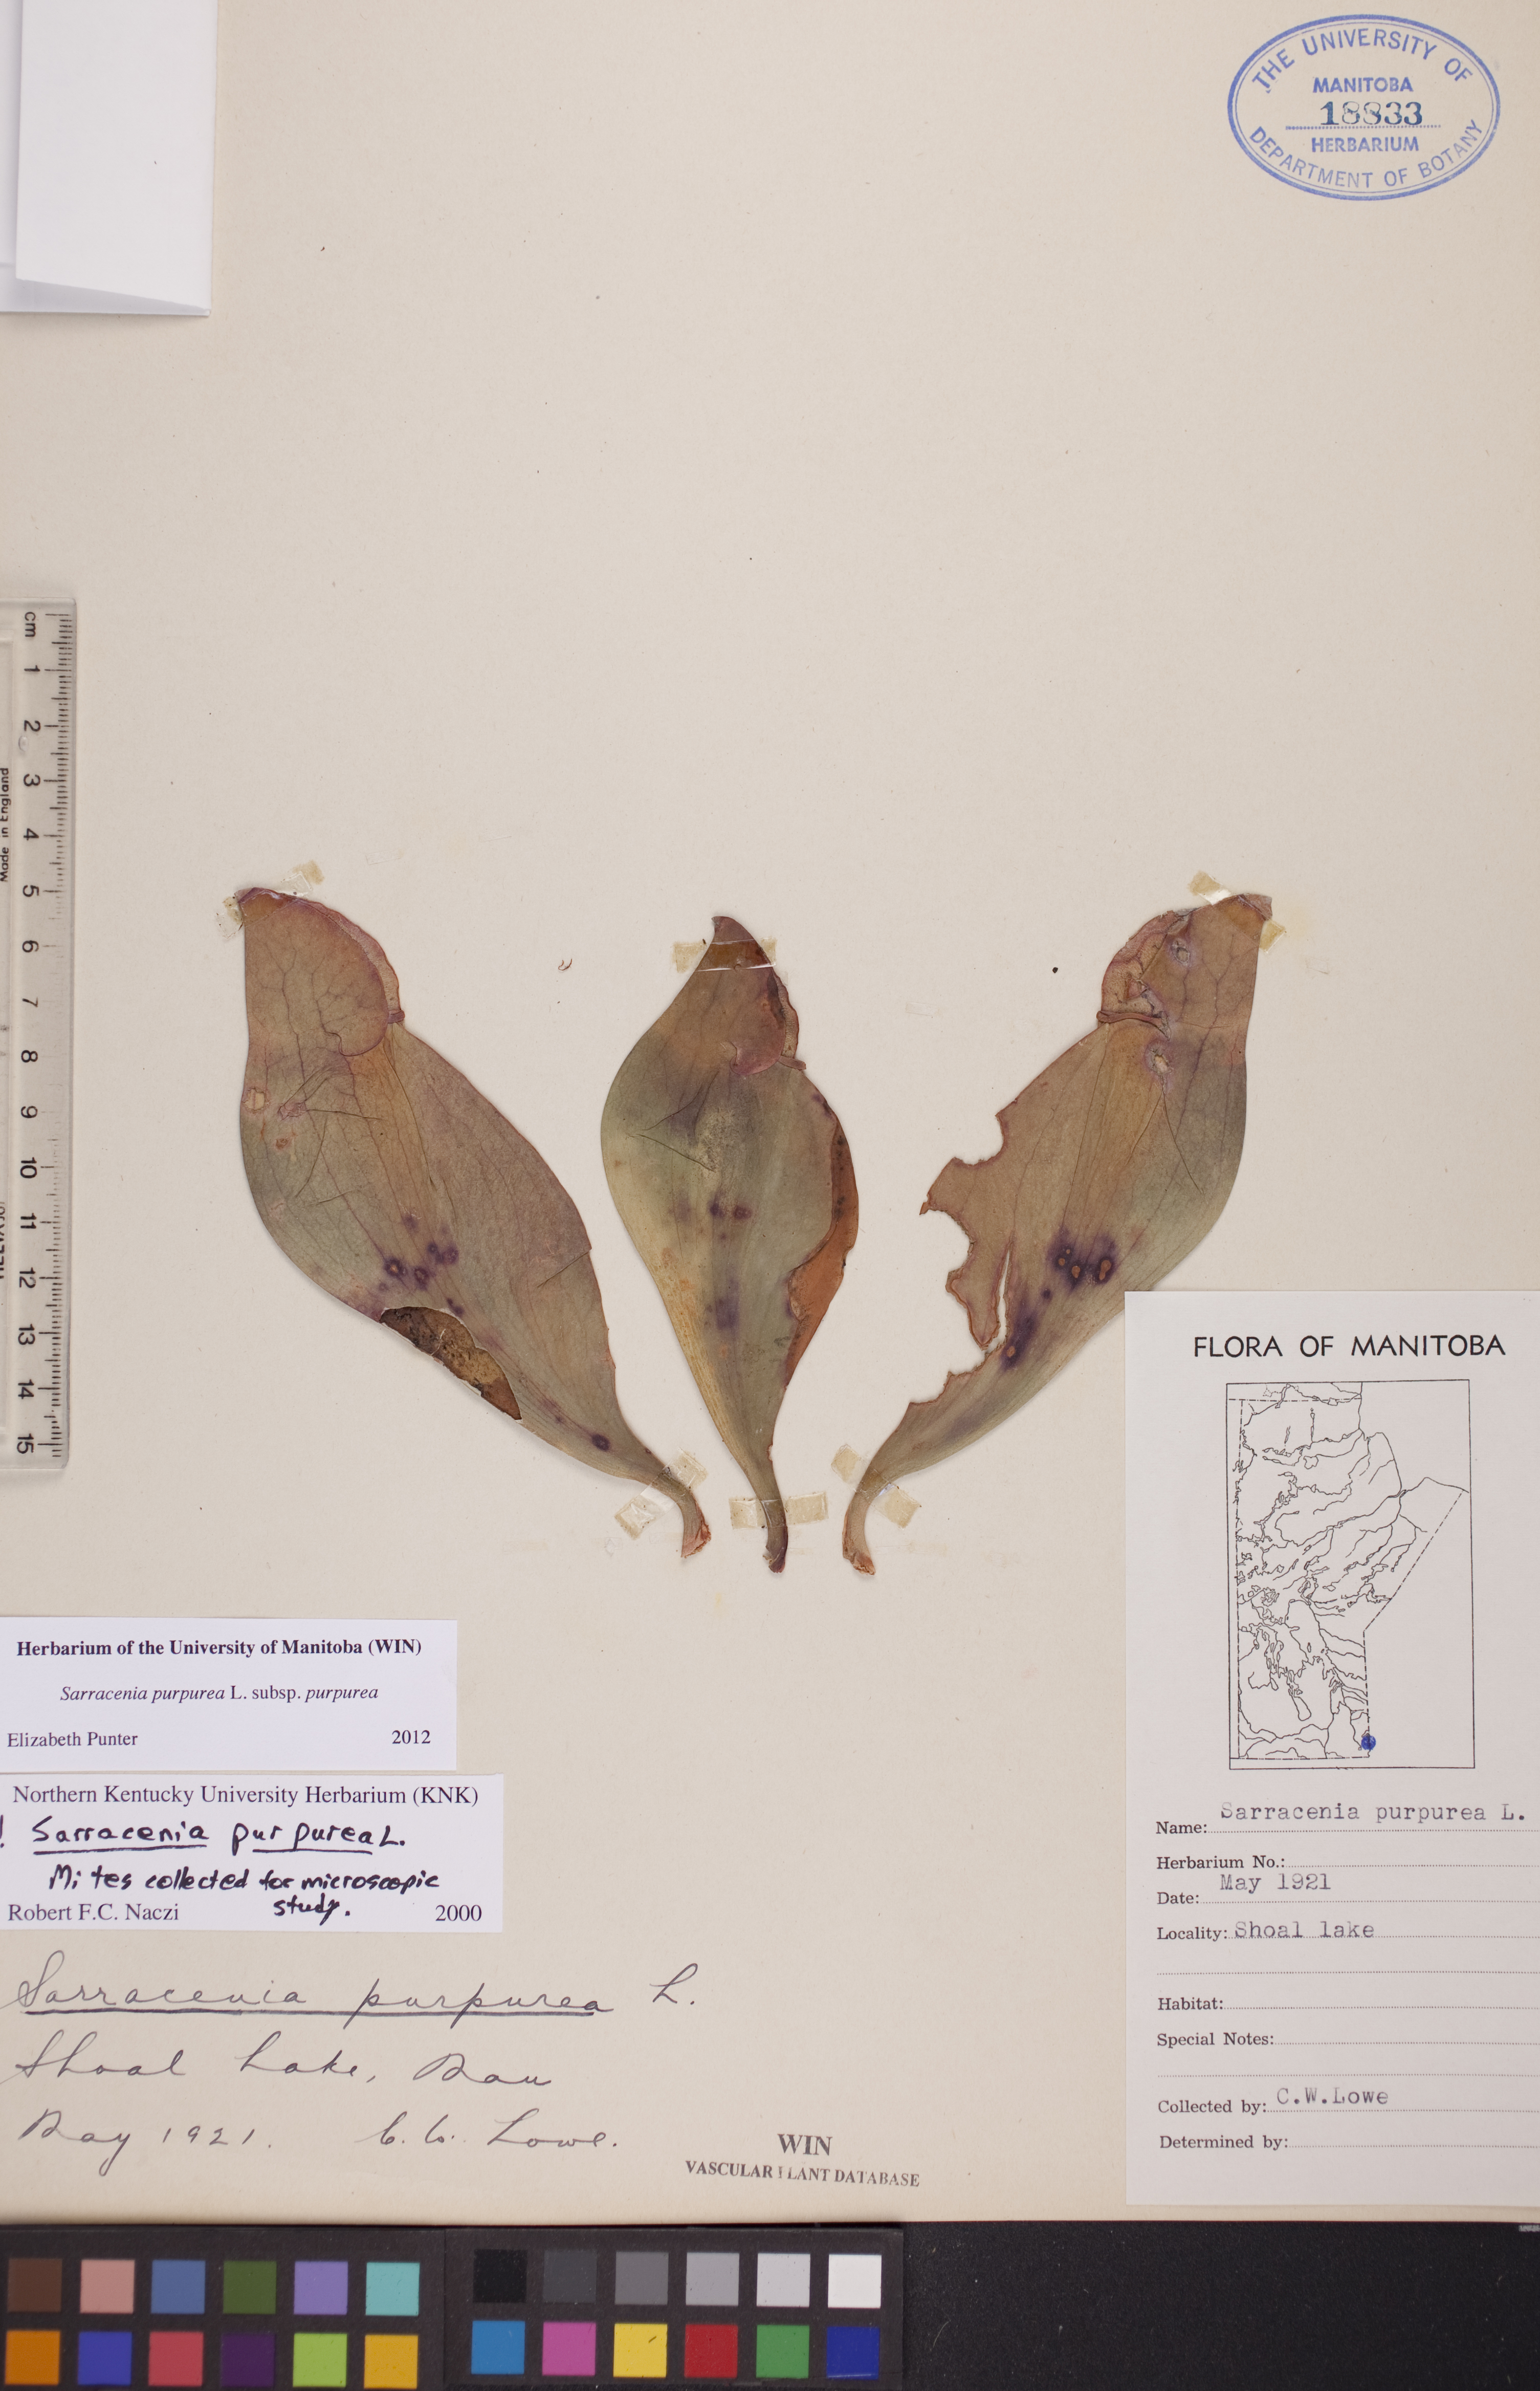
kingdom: Plantae
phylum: Tracheophyta
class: Magnoliopsida
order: Ericales
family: Sarraceniaceae
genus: Sarracenia
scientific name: Sarracenia purpurea
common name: Pitcherplant
